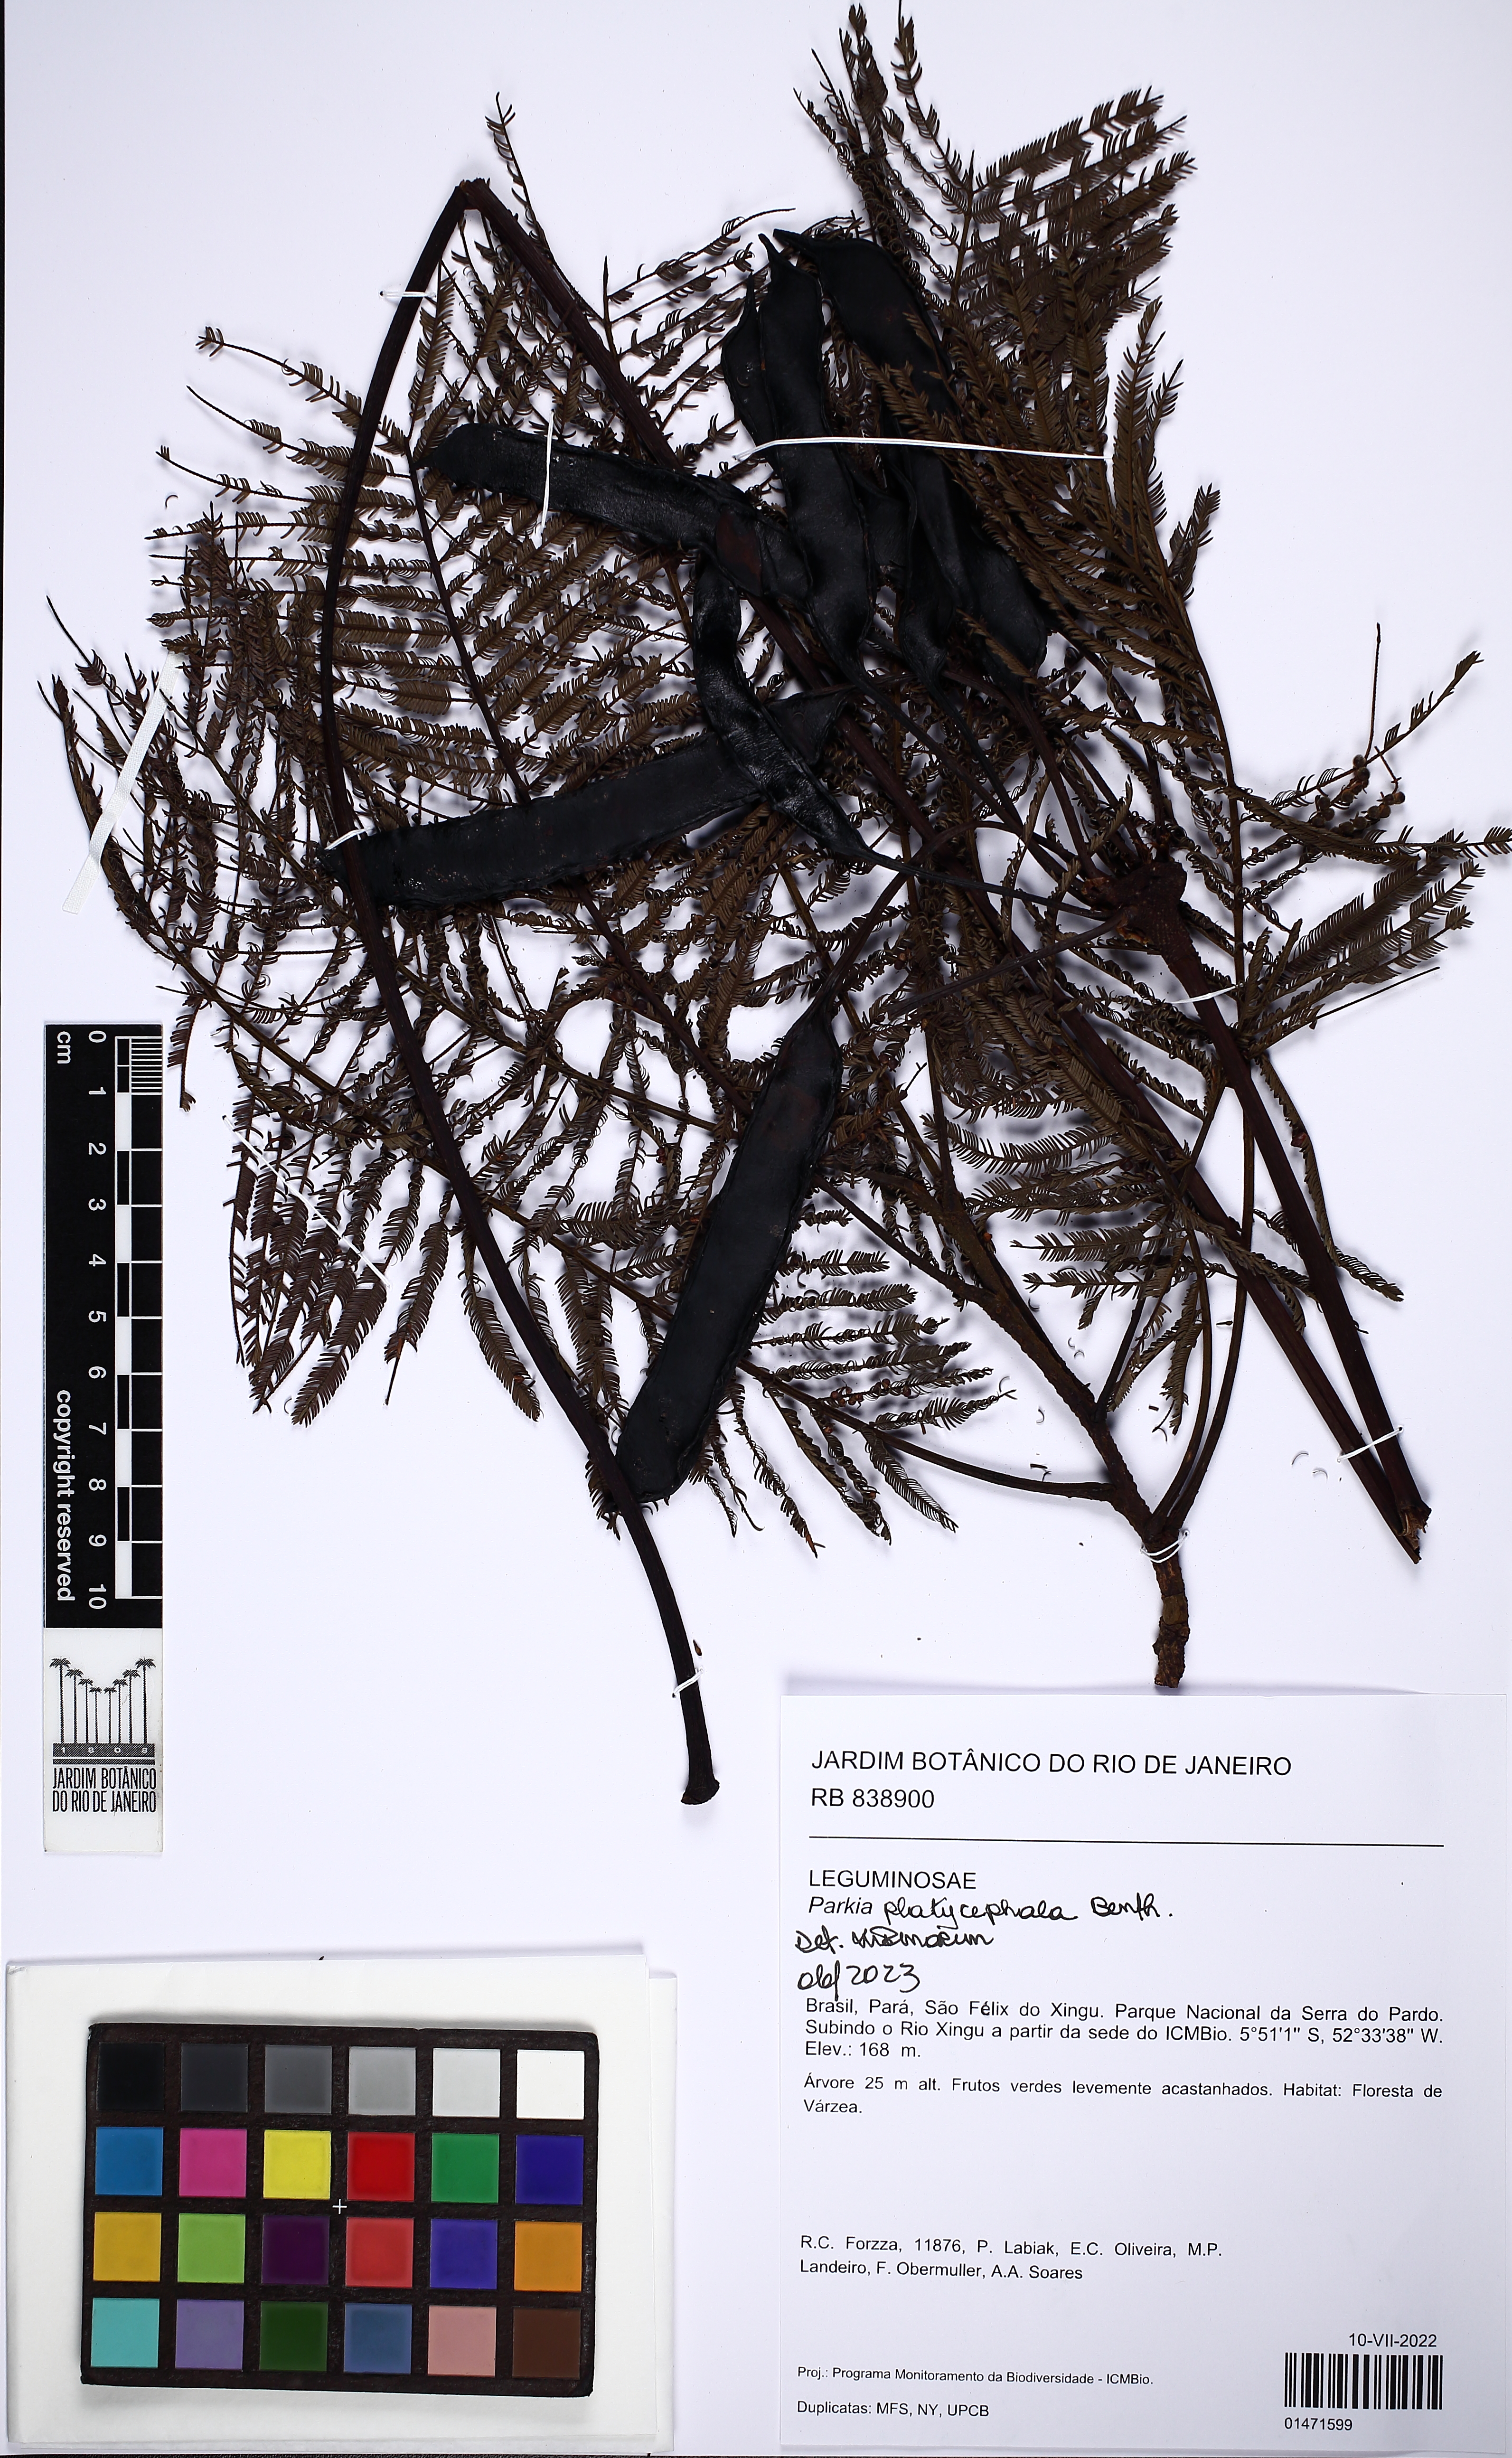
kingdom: Plantae
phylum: Tracheophyta
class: Magnoliopsida
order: Fabales
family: Fabaceae
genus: Parkia
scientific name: Parkia platycephala
